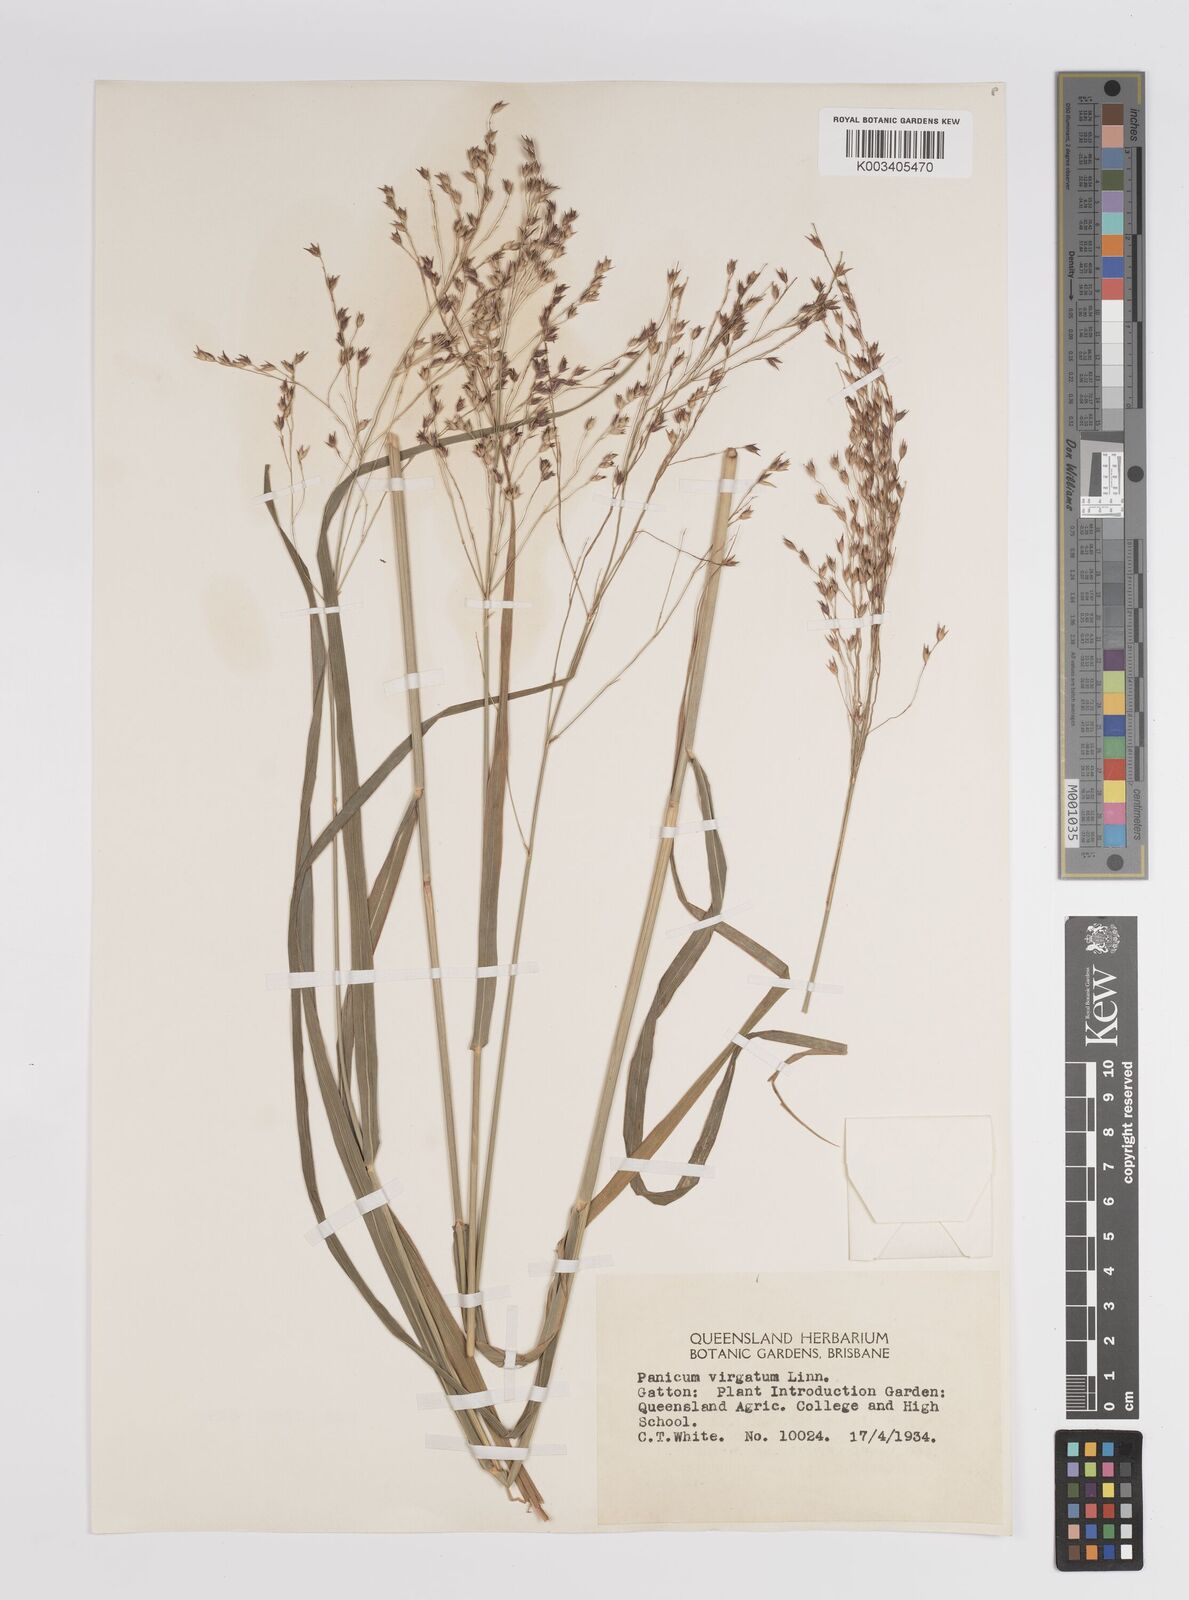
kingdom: Plantae
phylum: Tracheophyta
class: Liliopsida
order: Poales
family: Poaceae
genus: Panicum
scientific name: Panicum virgatum
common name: Switchgrass
